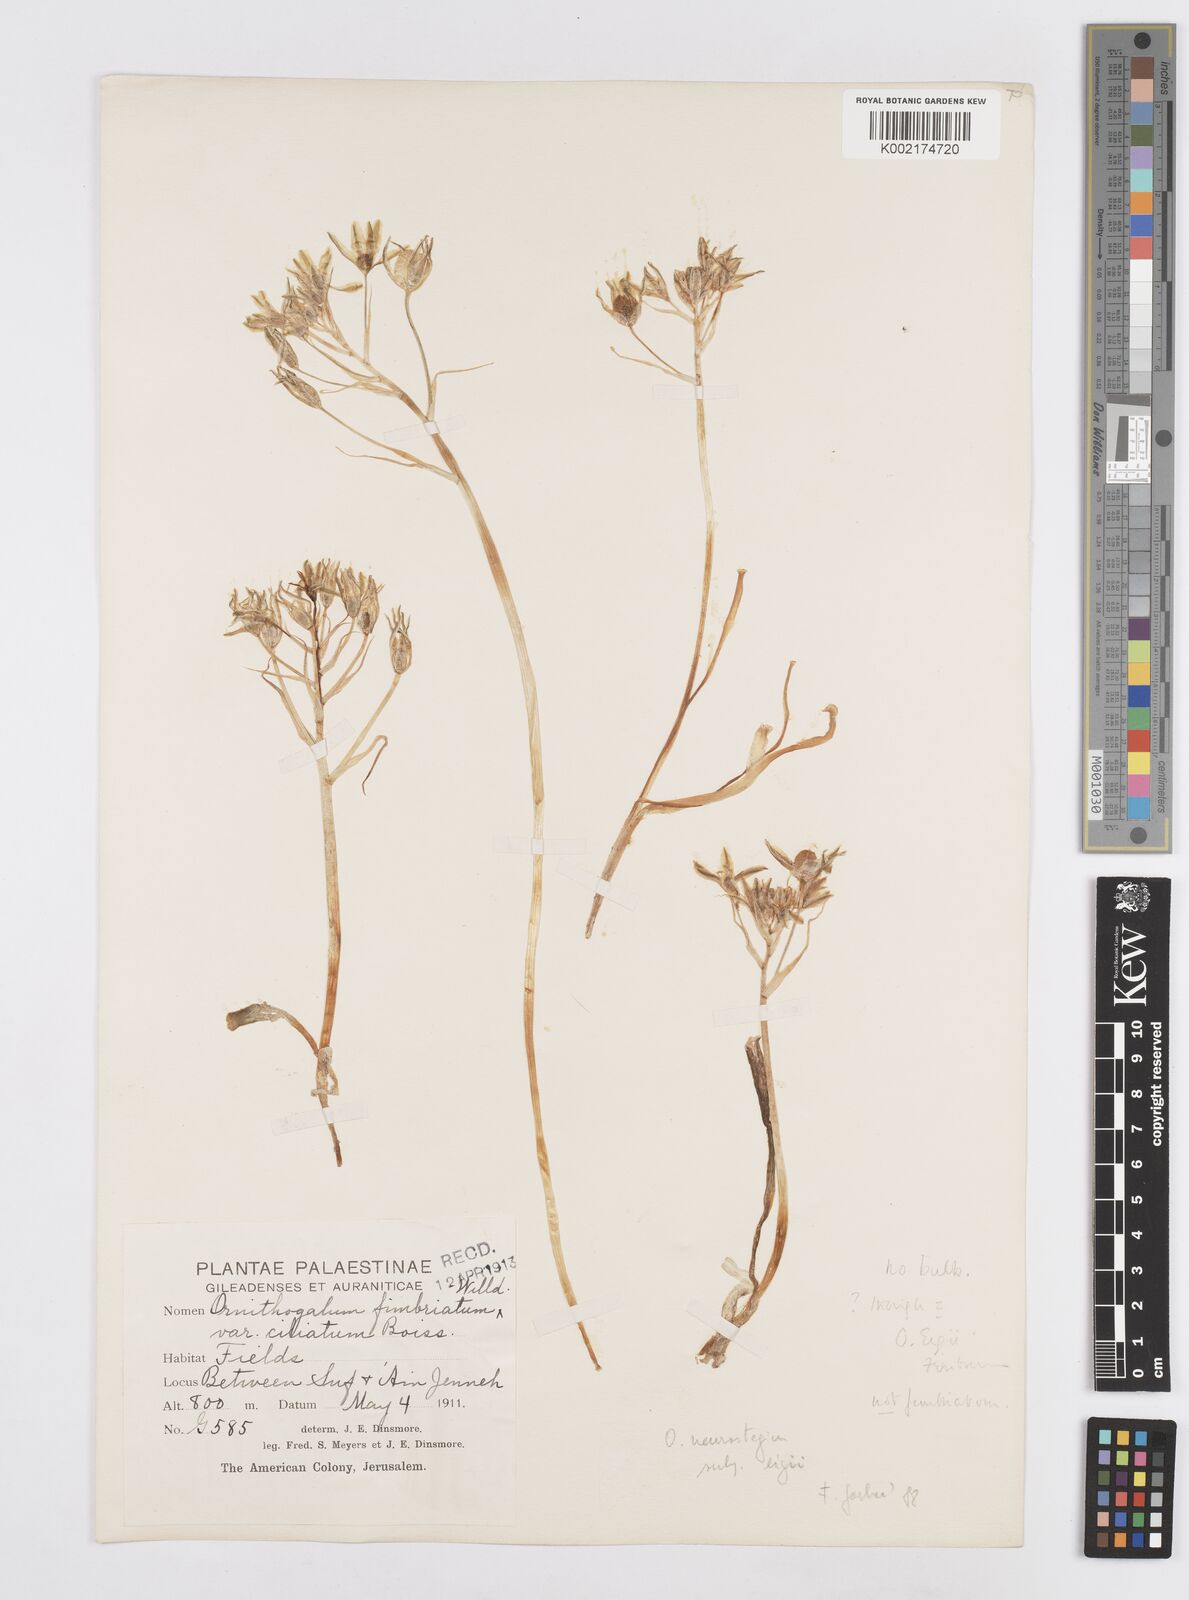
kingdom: Plantae
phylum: Tracheophyta
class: Liliopsida
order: Asparagales
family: Asparagaceae
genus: Ornithogalum
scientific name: Ornithogalum fimbriatum
